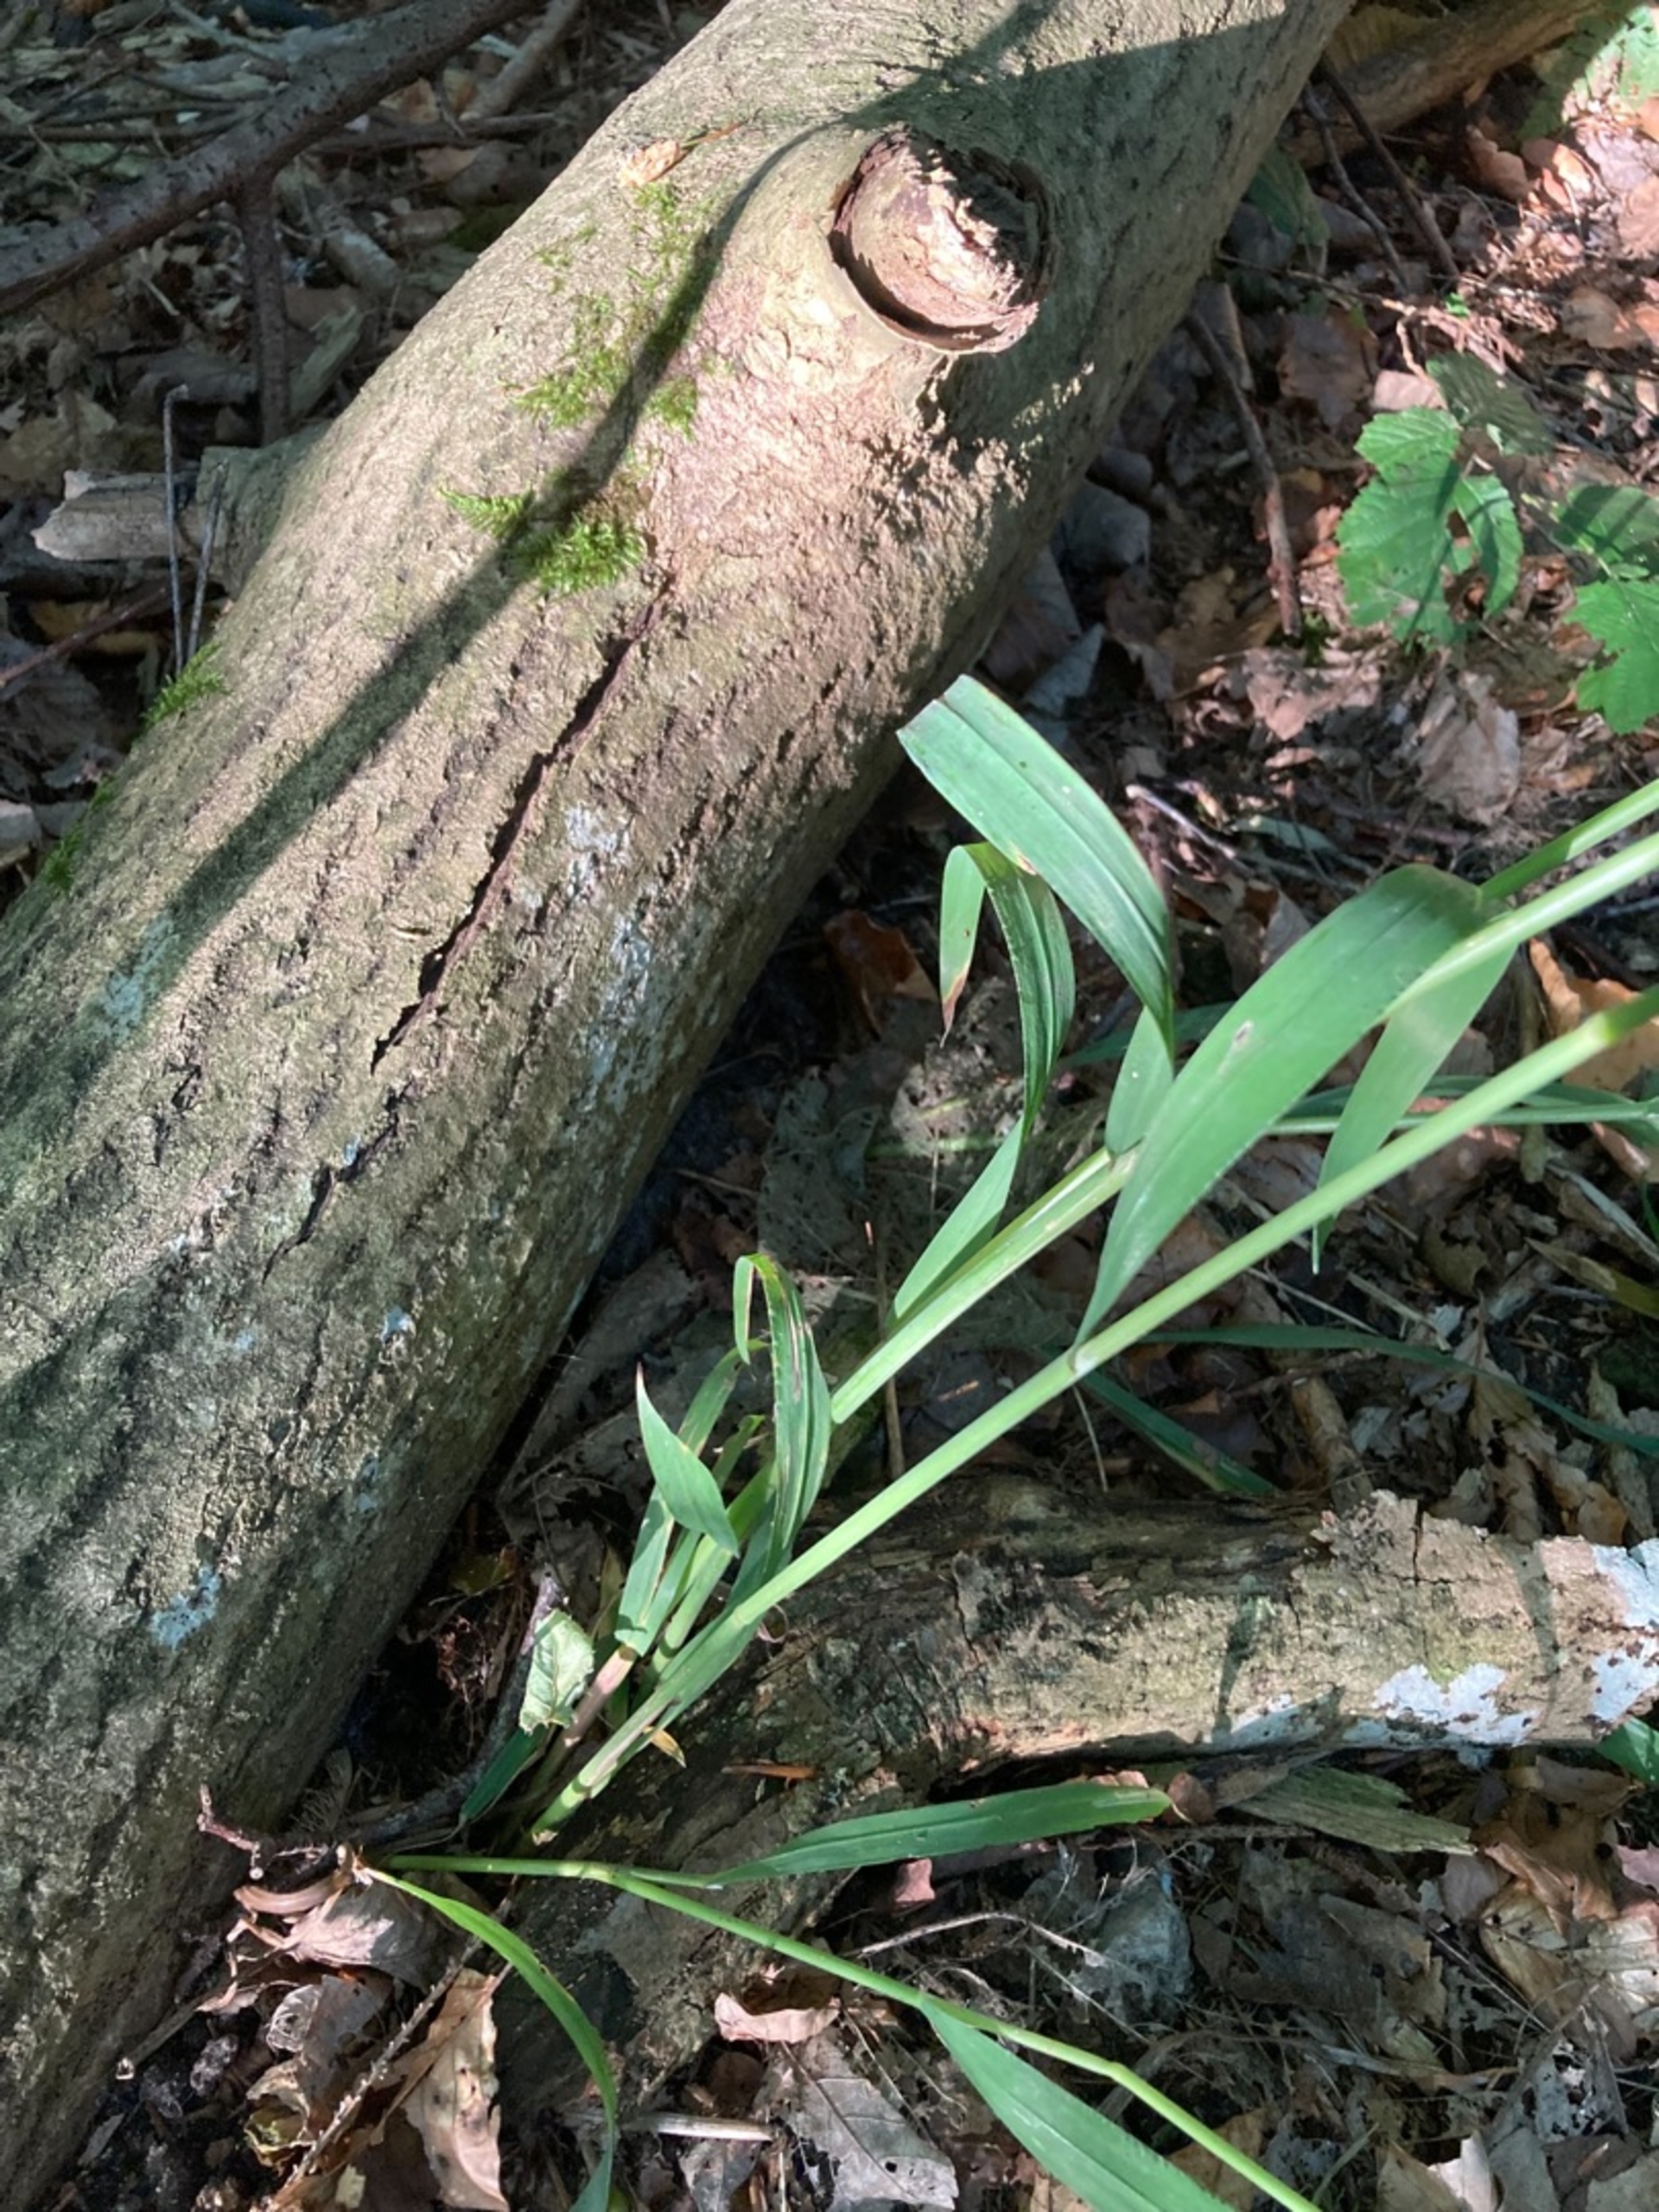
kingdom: Plantae
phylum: Tracheophyta
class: Liliopsida
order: Poales
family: Poaceae
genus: Milium
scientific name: Milium effusum
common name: Miliegræs
